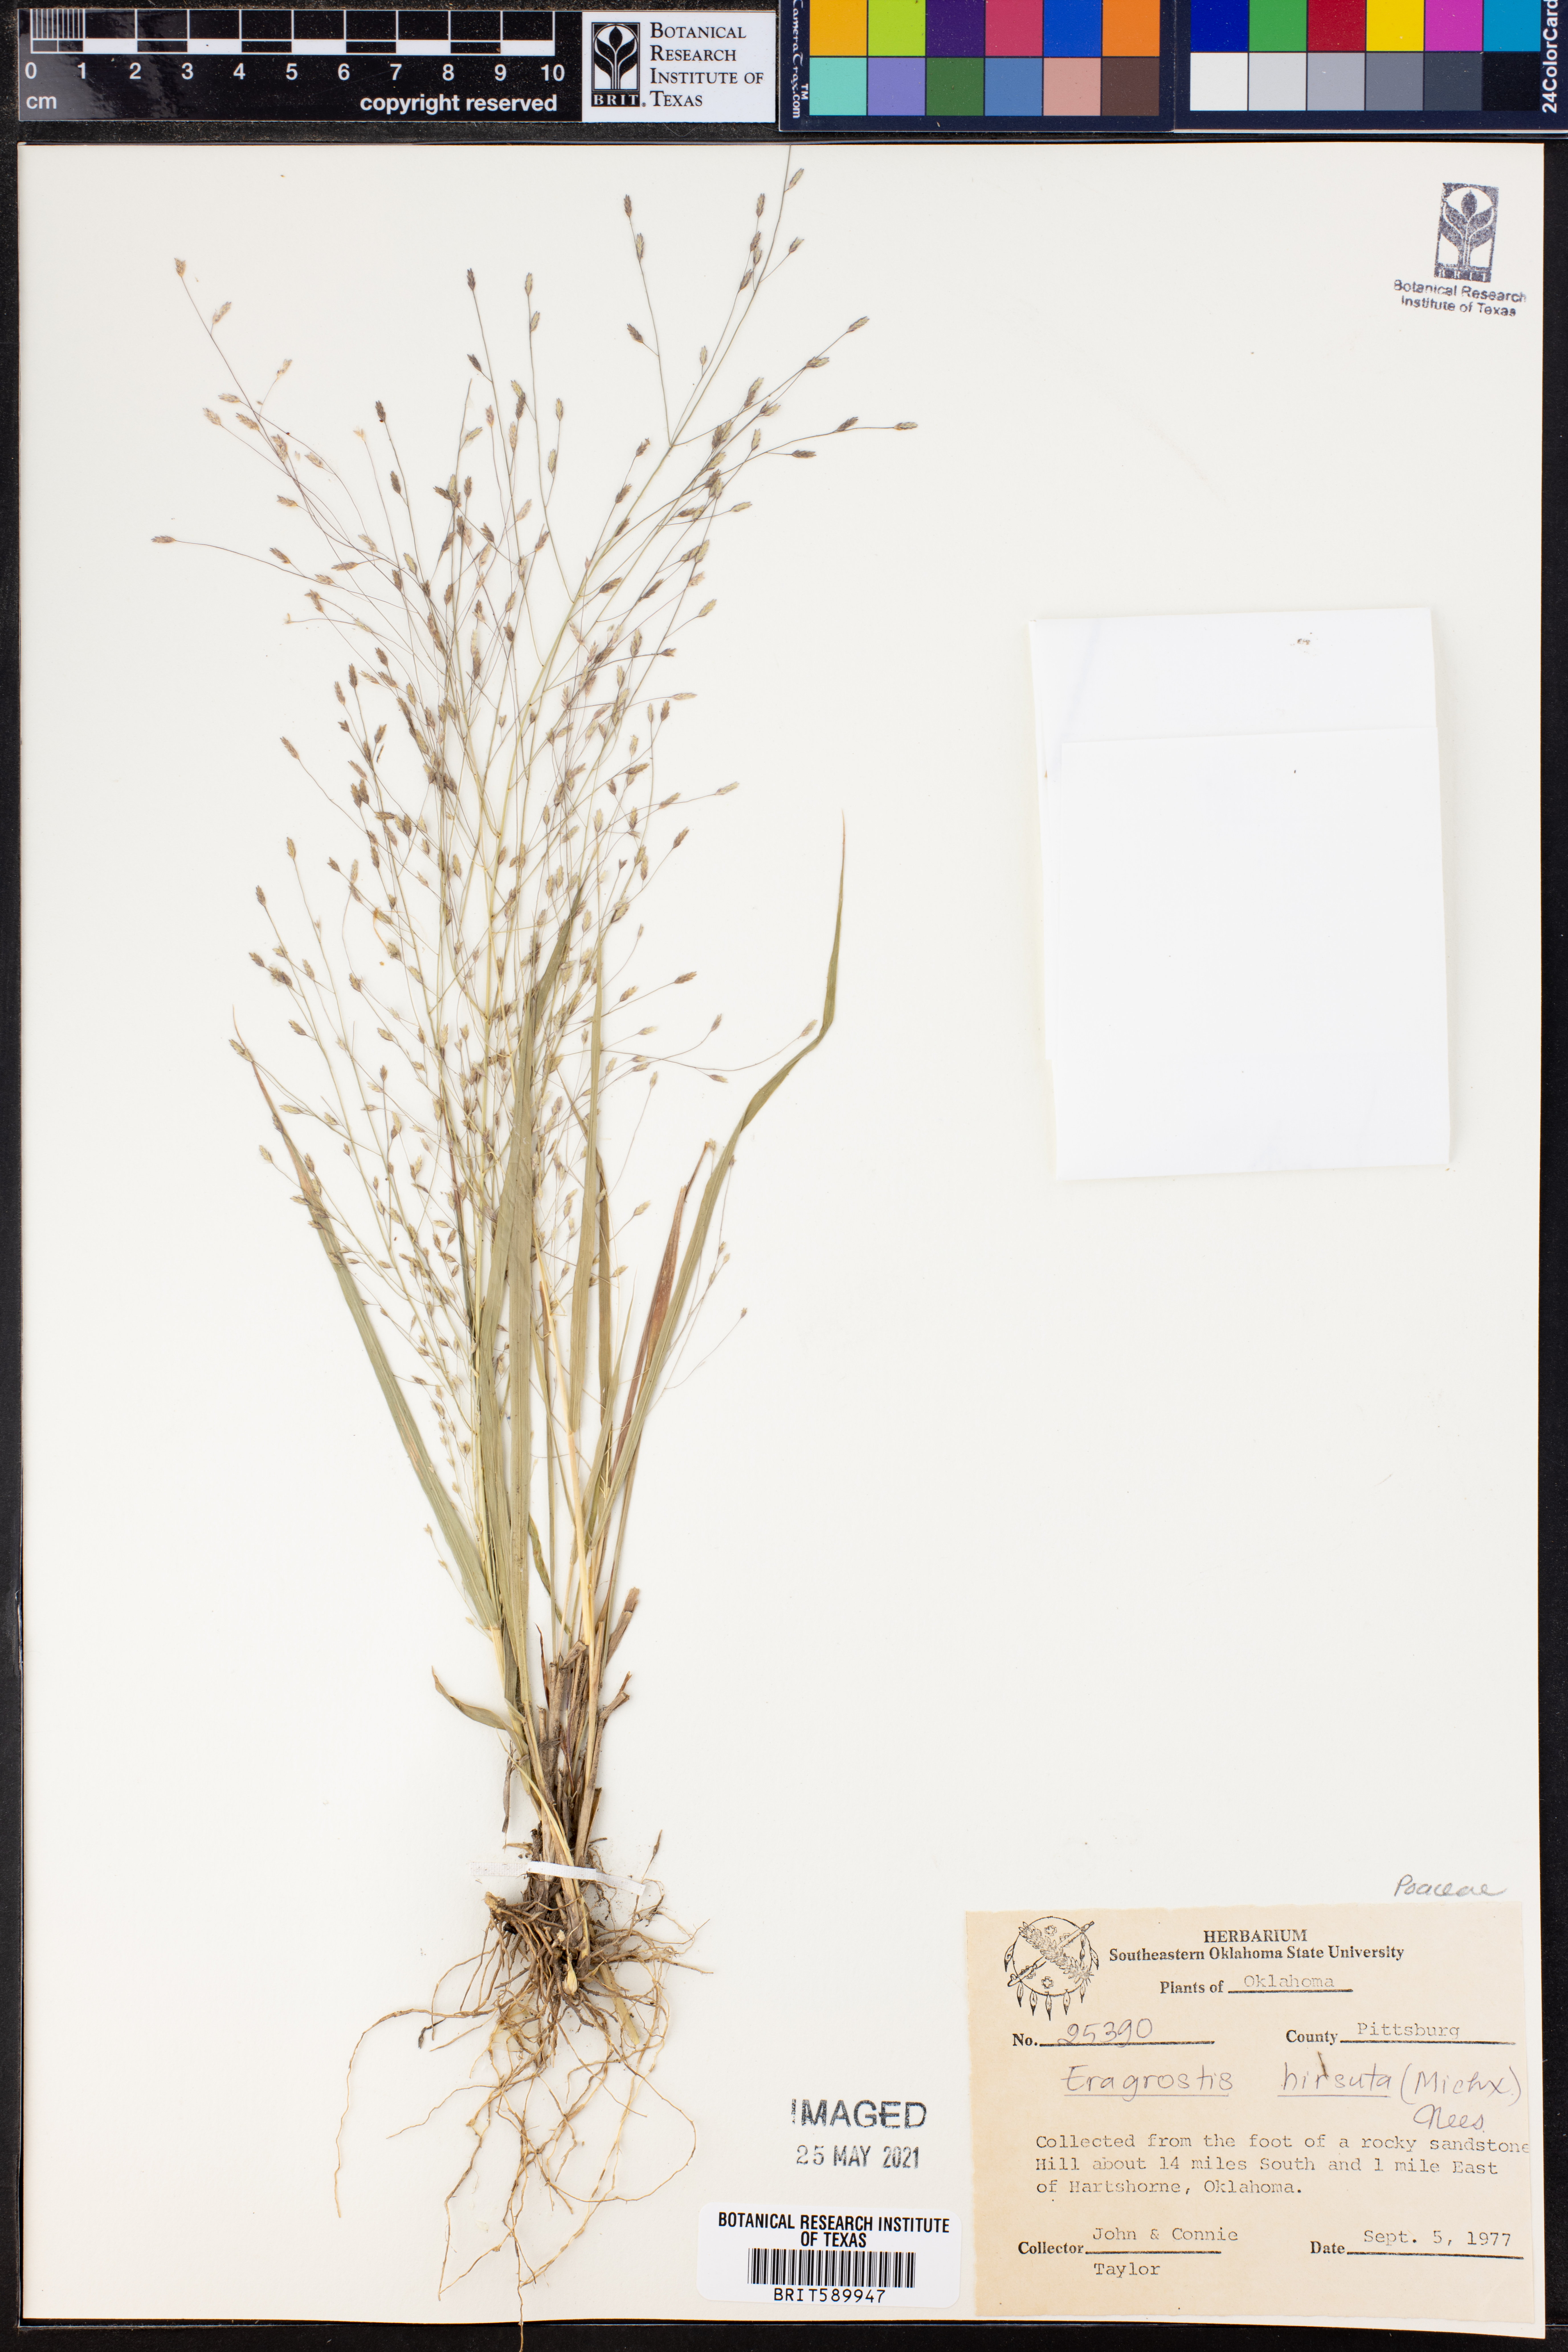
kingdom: Plantae
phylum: Tracheophyta
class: Liliopsida
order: Poales
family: Poaceae
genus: Eragrostis
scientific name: Eragrostis hirsuta
